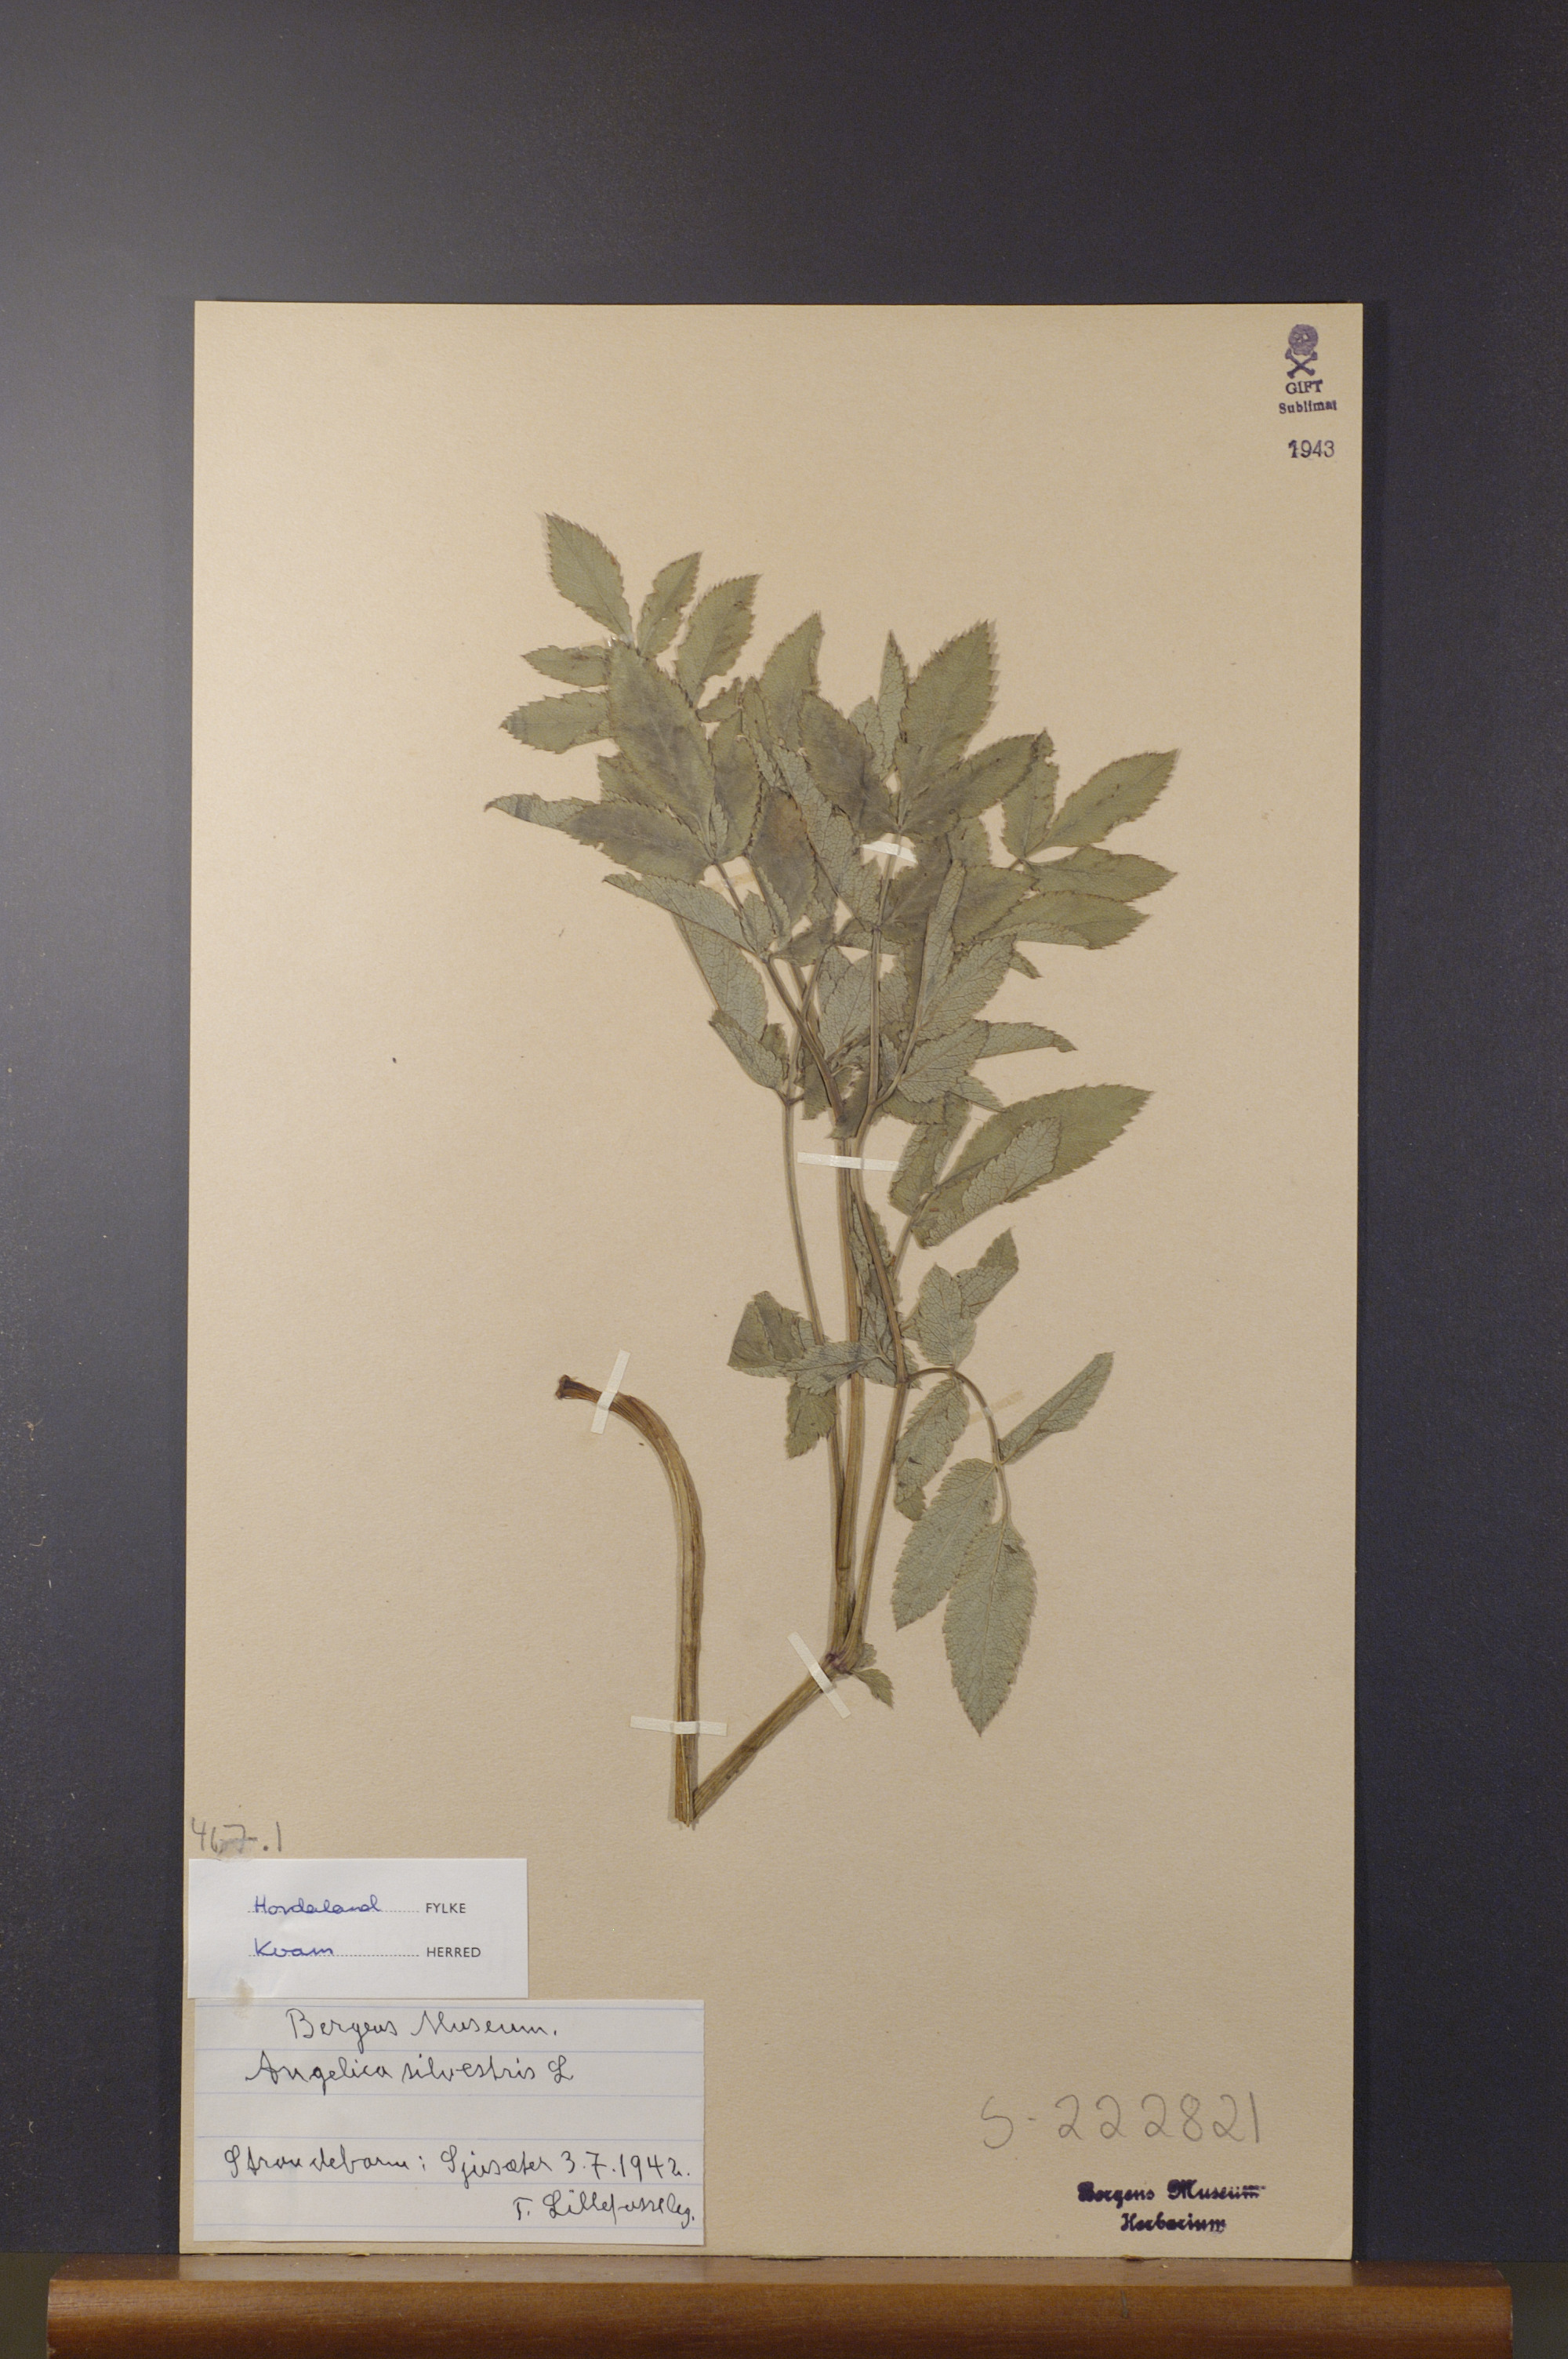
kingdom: Plantae
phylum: Tracheophyta
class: Magnoliopsida
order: Apiales
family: Apiaceae
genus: Angelica
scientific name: Angelica sylvestris
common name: Wild angelica
